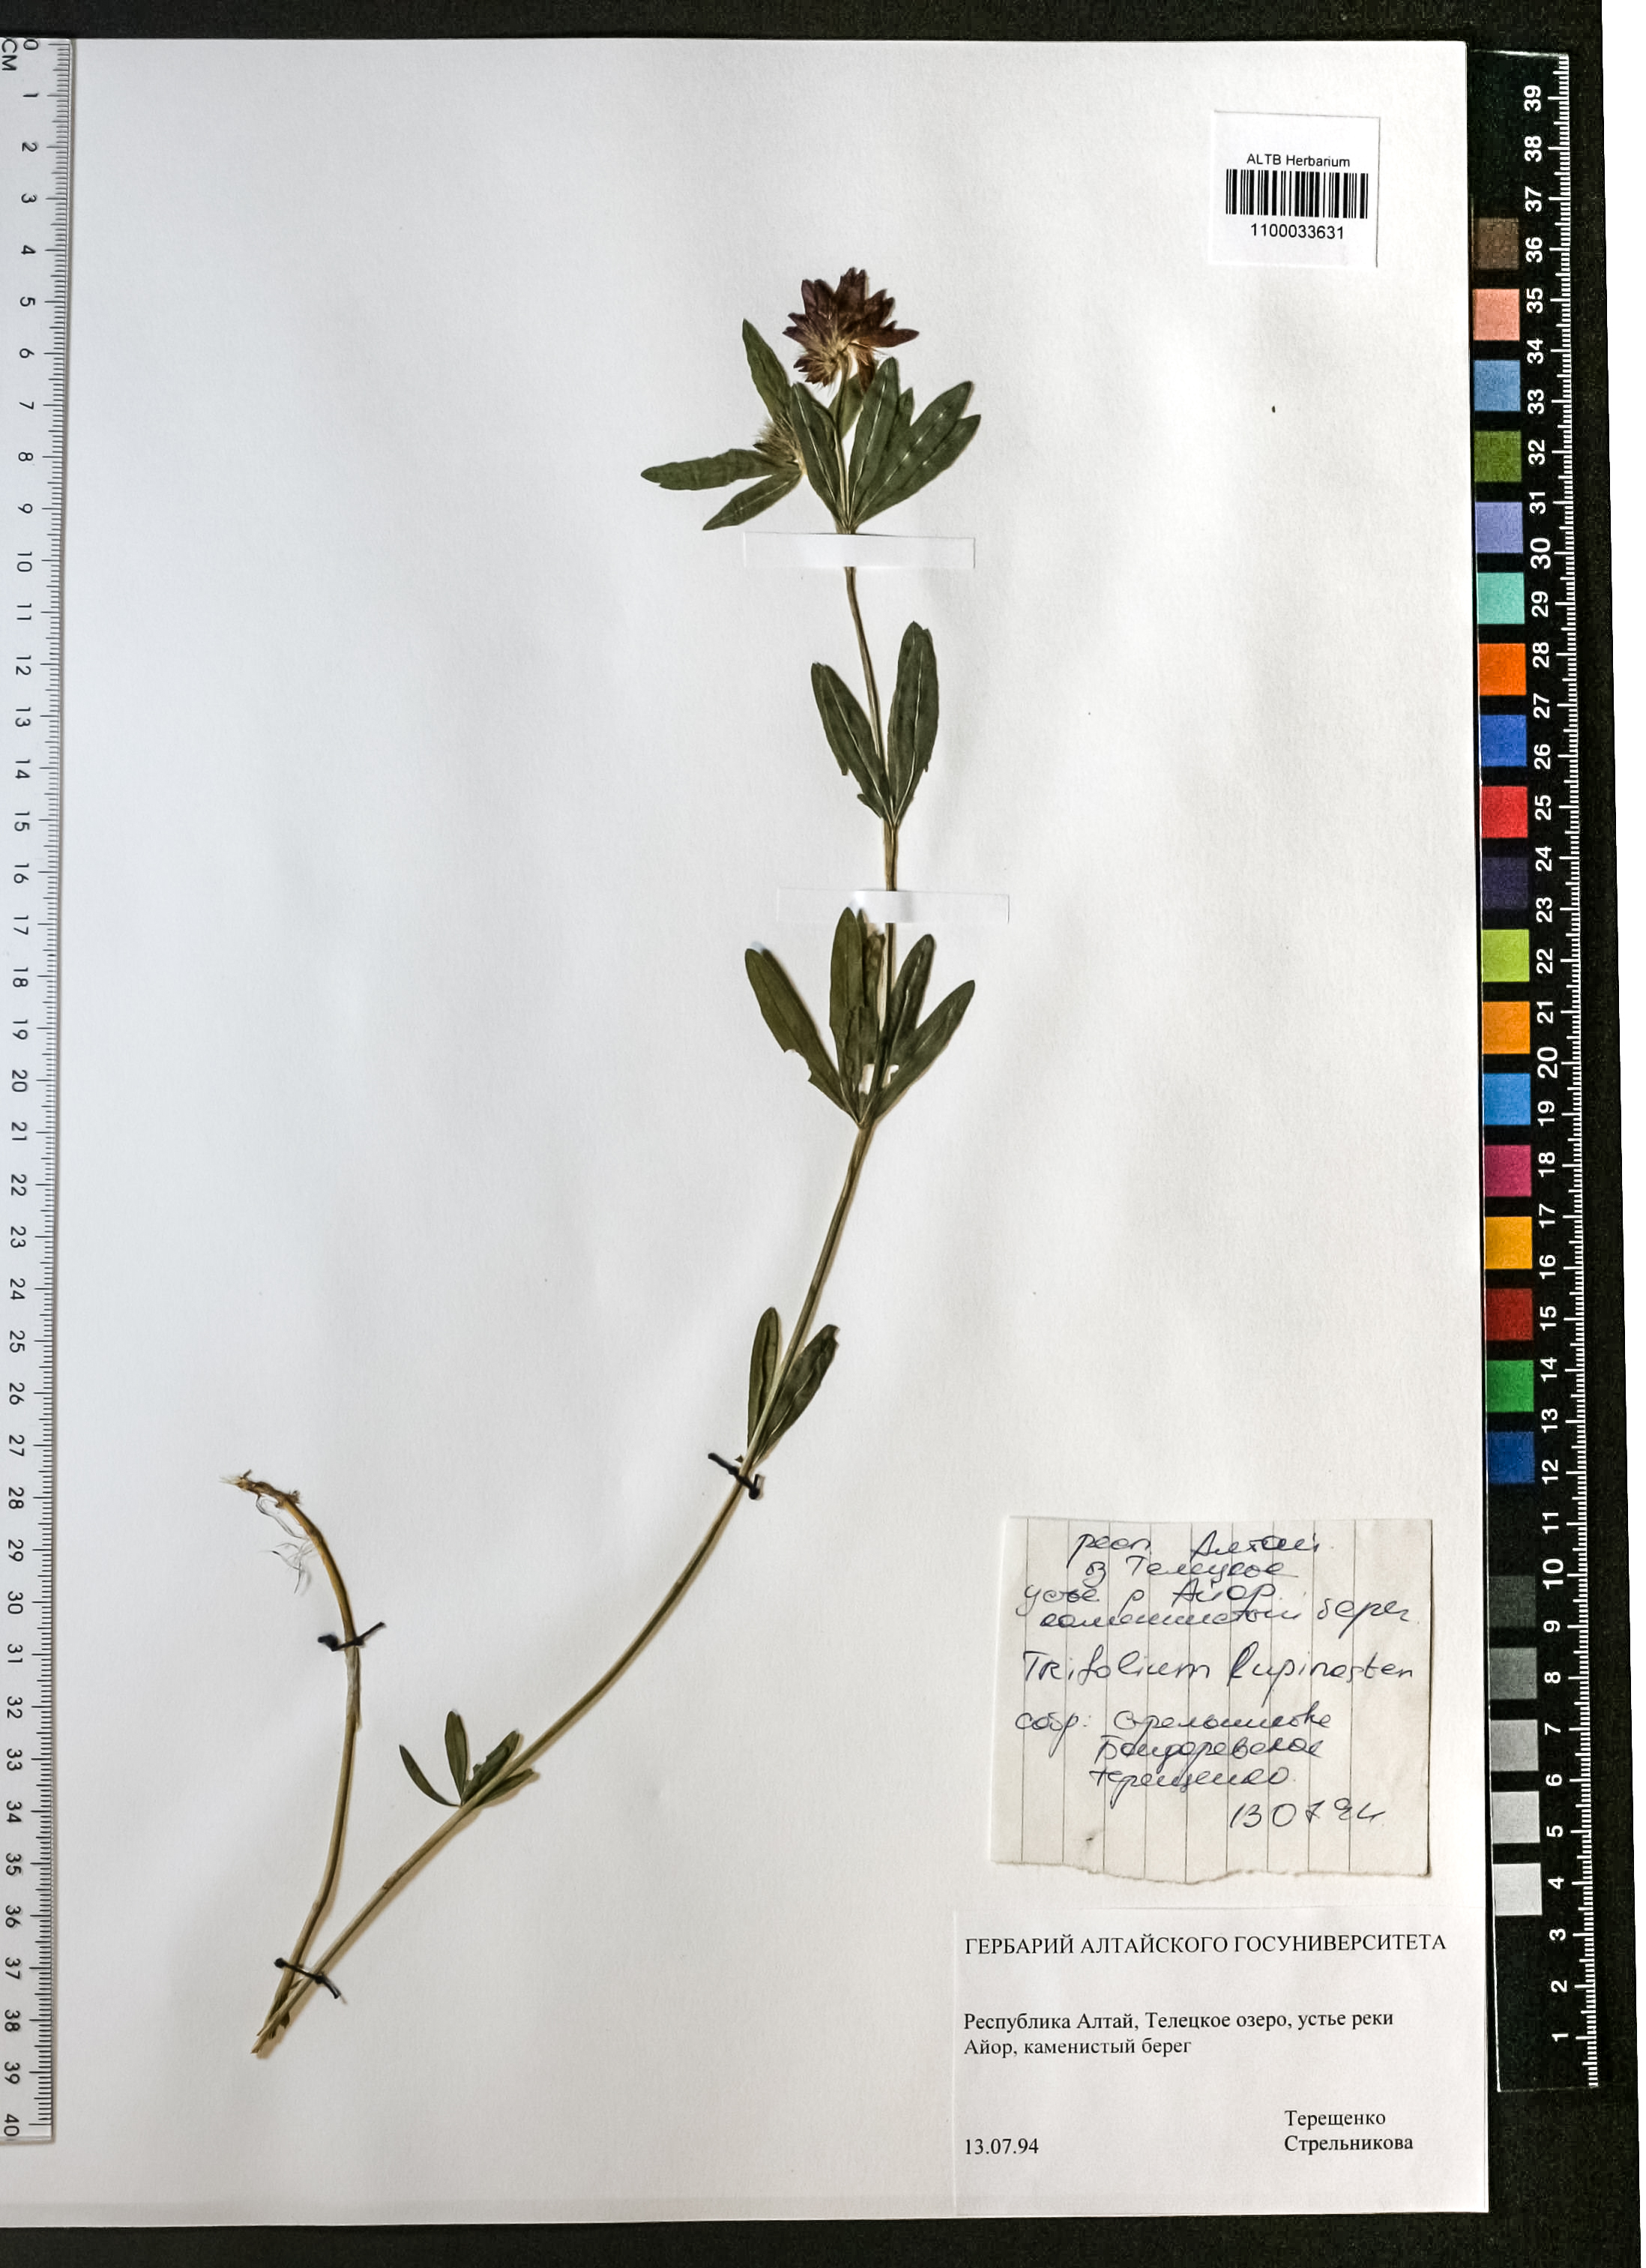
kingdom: Plantae
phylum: Tracheophyta
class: Magnoliopsida
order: Fabales
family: Fabaceae
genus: Trifolium
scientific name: Trifolium lupinaster
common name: Lupine clover
